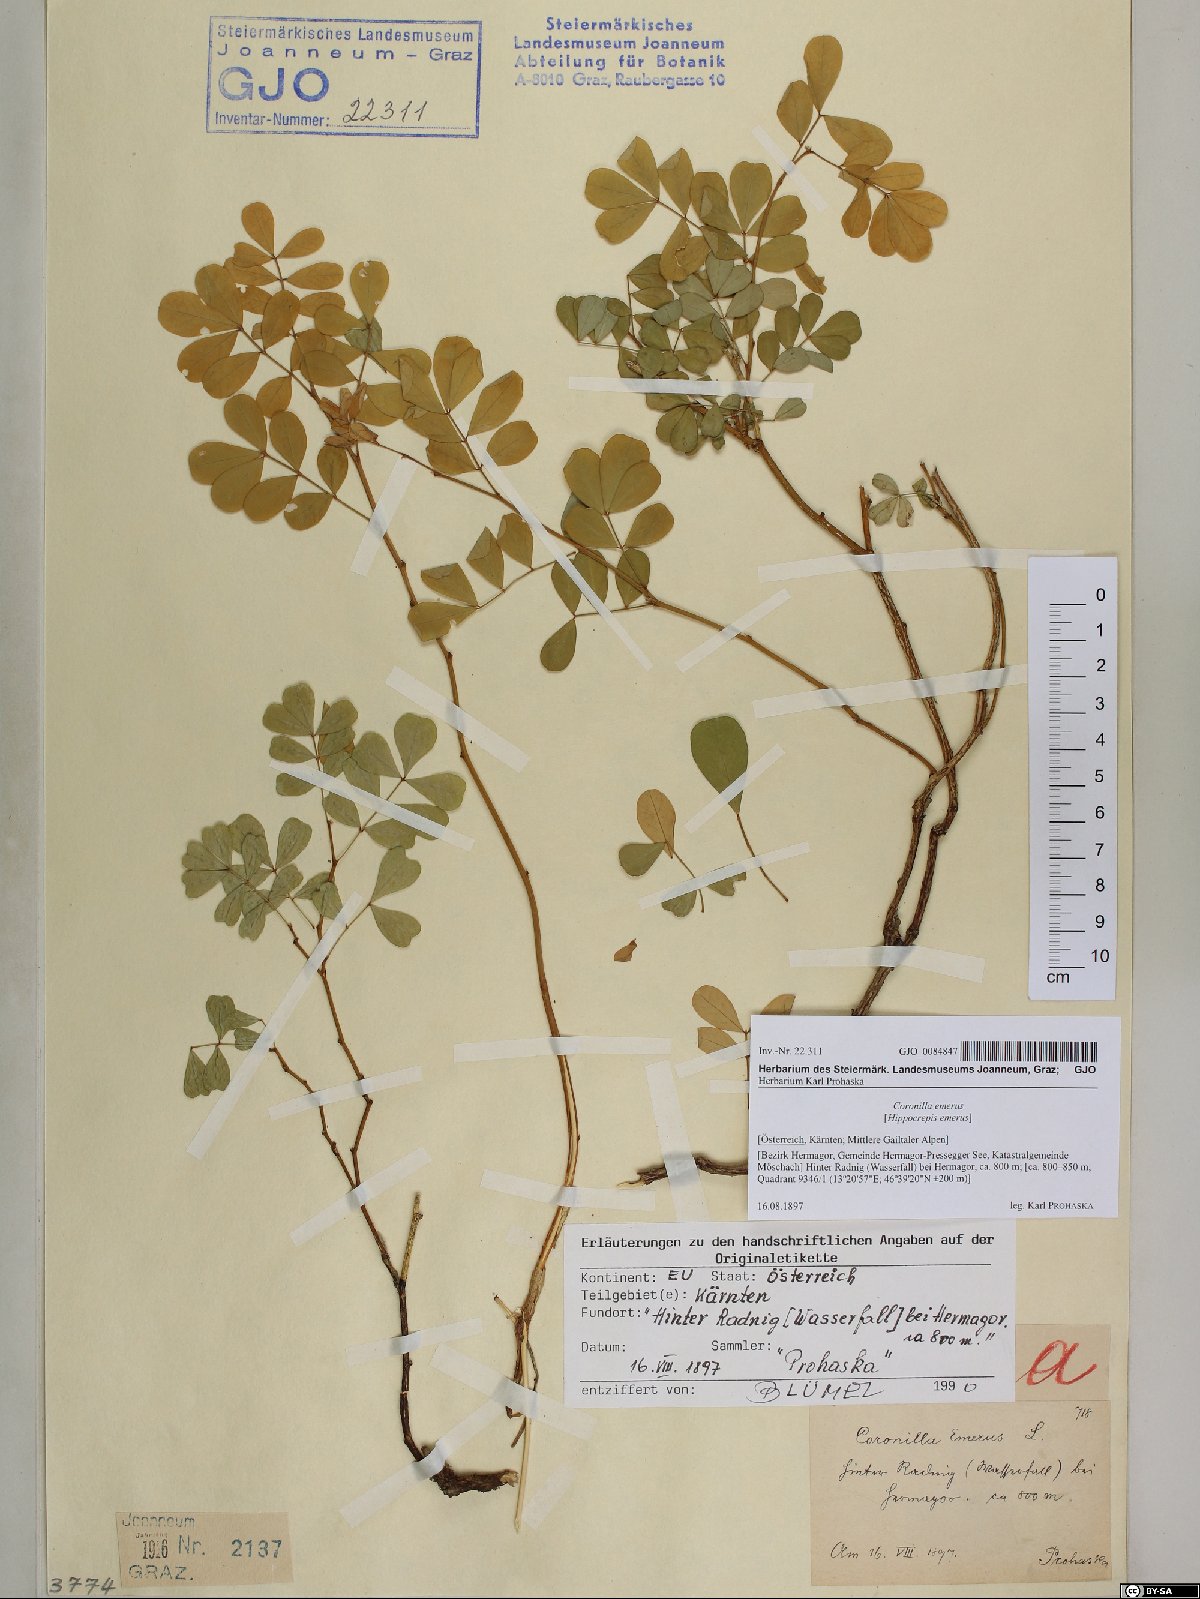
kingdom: Plantae
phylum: Tracheophyta
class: Magnoliopsida
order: Fabales
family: Fabaceae
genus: Hippocrepis
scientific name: Hippocrepis emerus
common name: Scorpion senna
